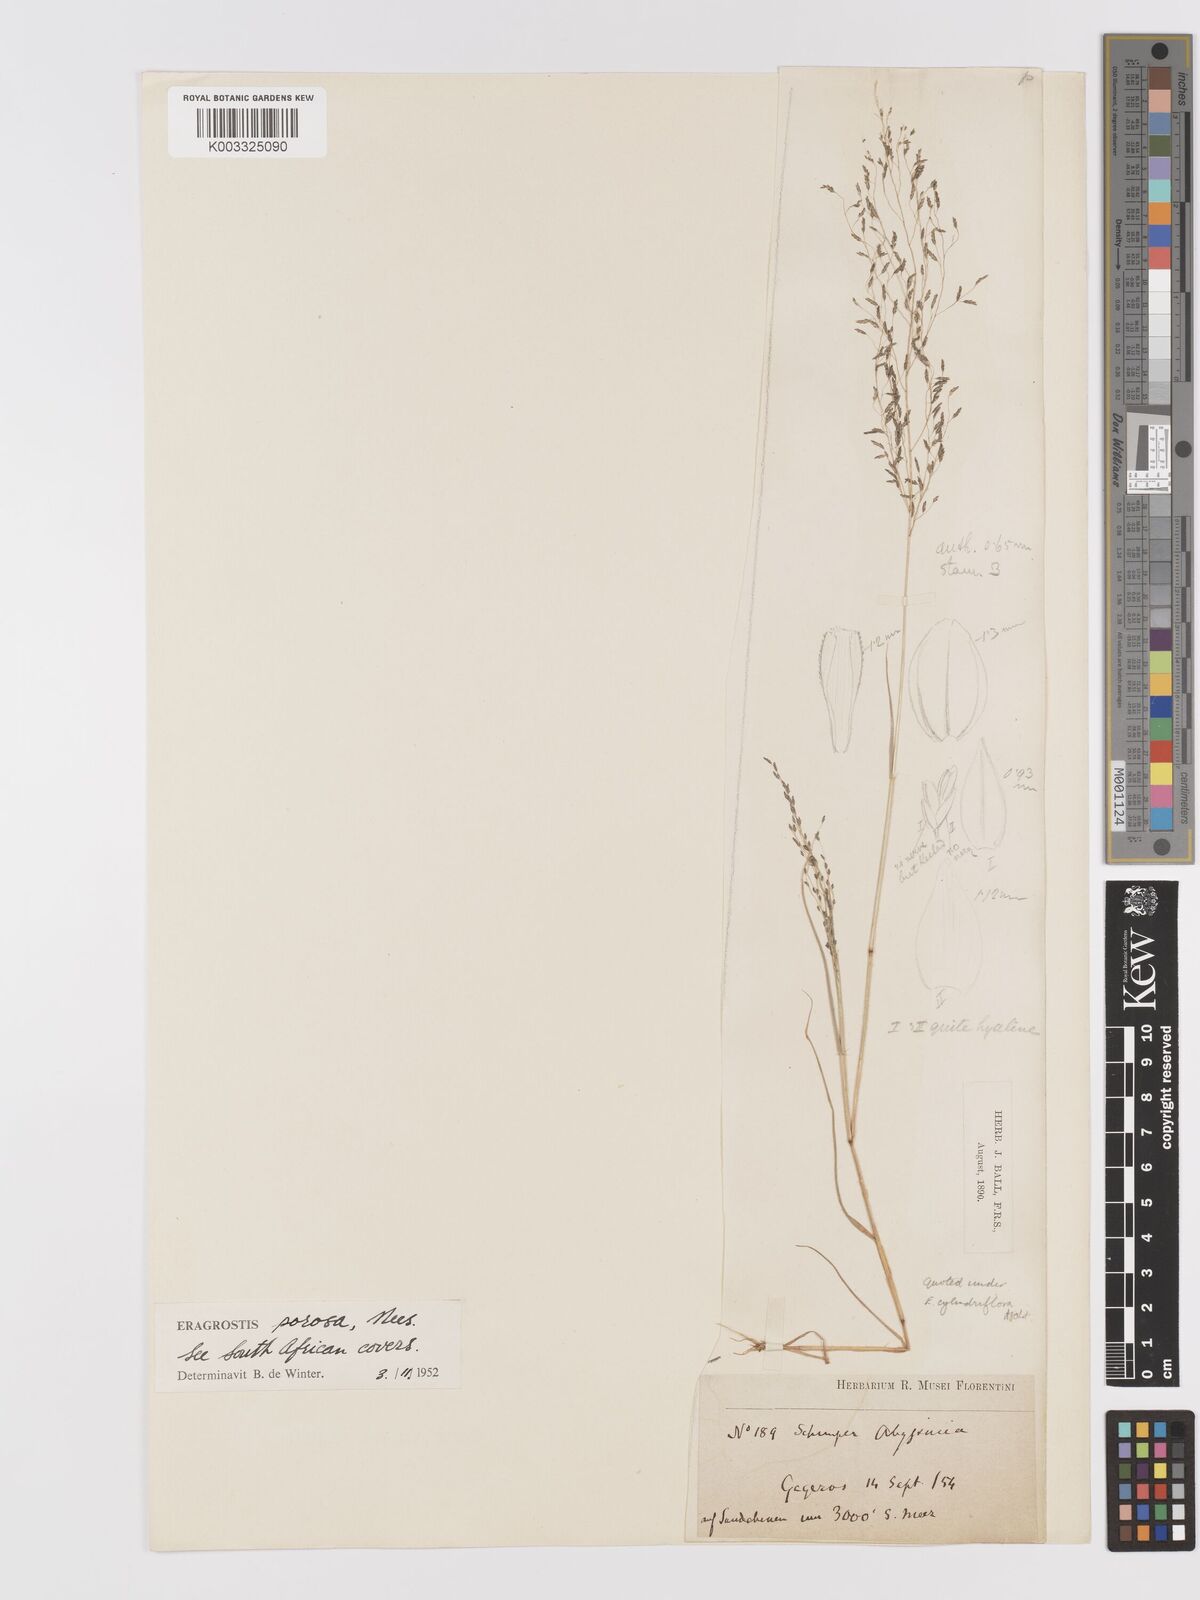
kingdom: Plantae
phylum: Tracheophyta
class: Liliopsida
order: Poales
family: Poaceae
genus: Eragrostis
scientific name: Eragrostis porosa
